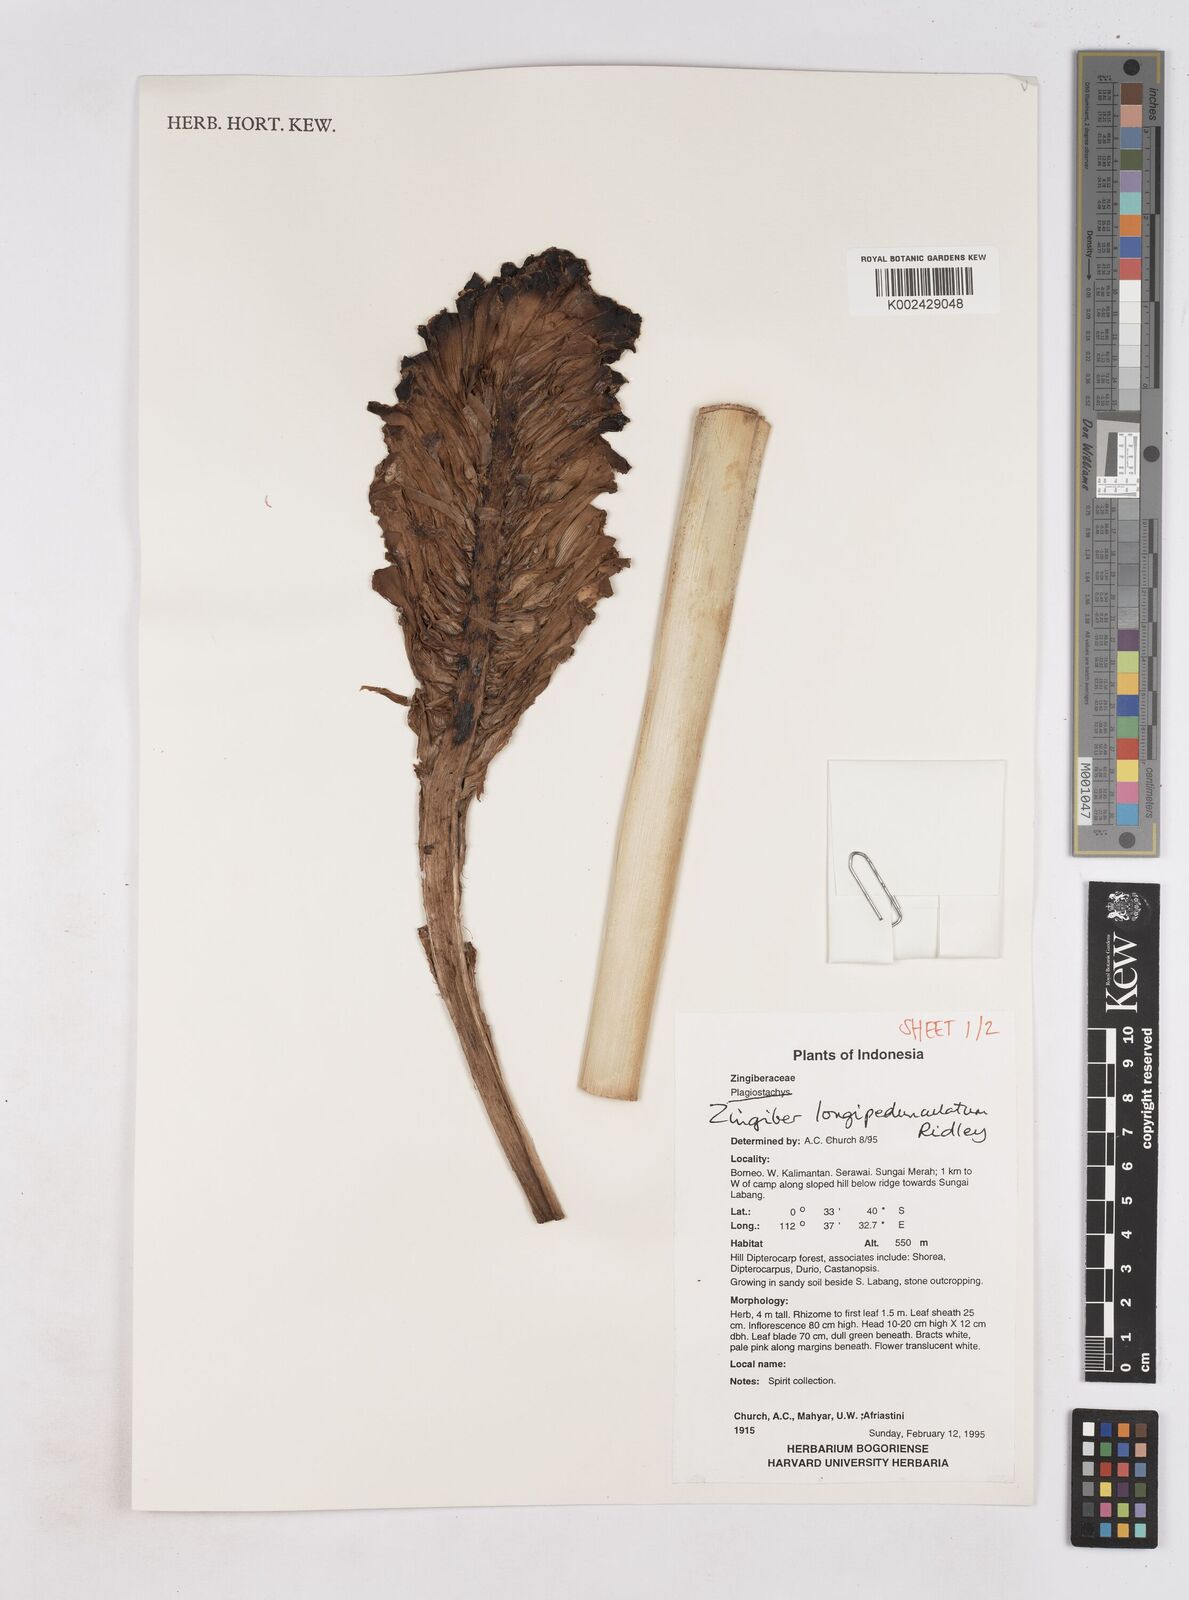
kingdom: Plantae
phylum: Tracheophyta
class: Liliopsida
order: Zingiberales
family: Zingiberaceae
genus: Zingiber
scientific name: Zingiber longipedunculatum
